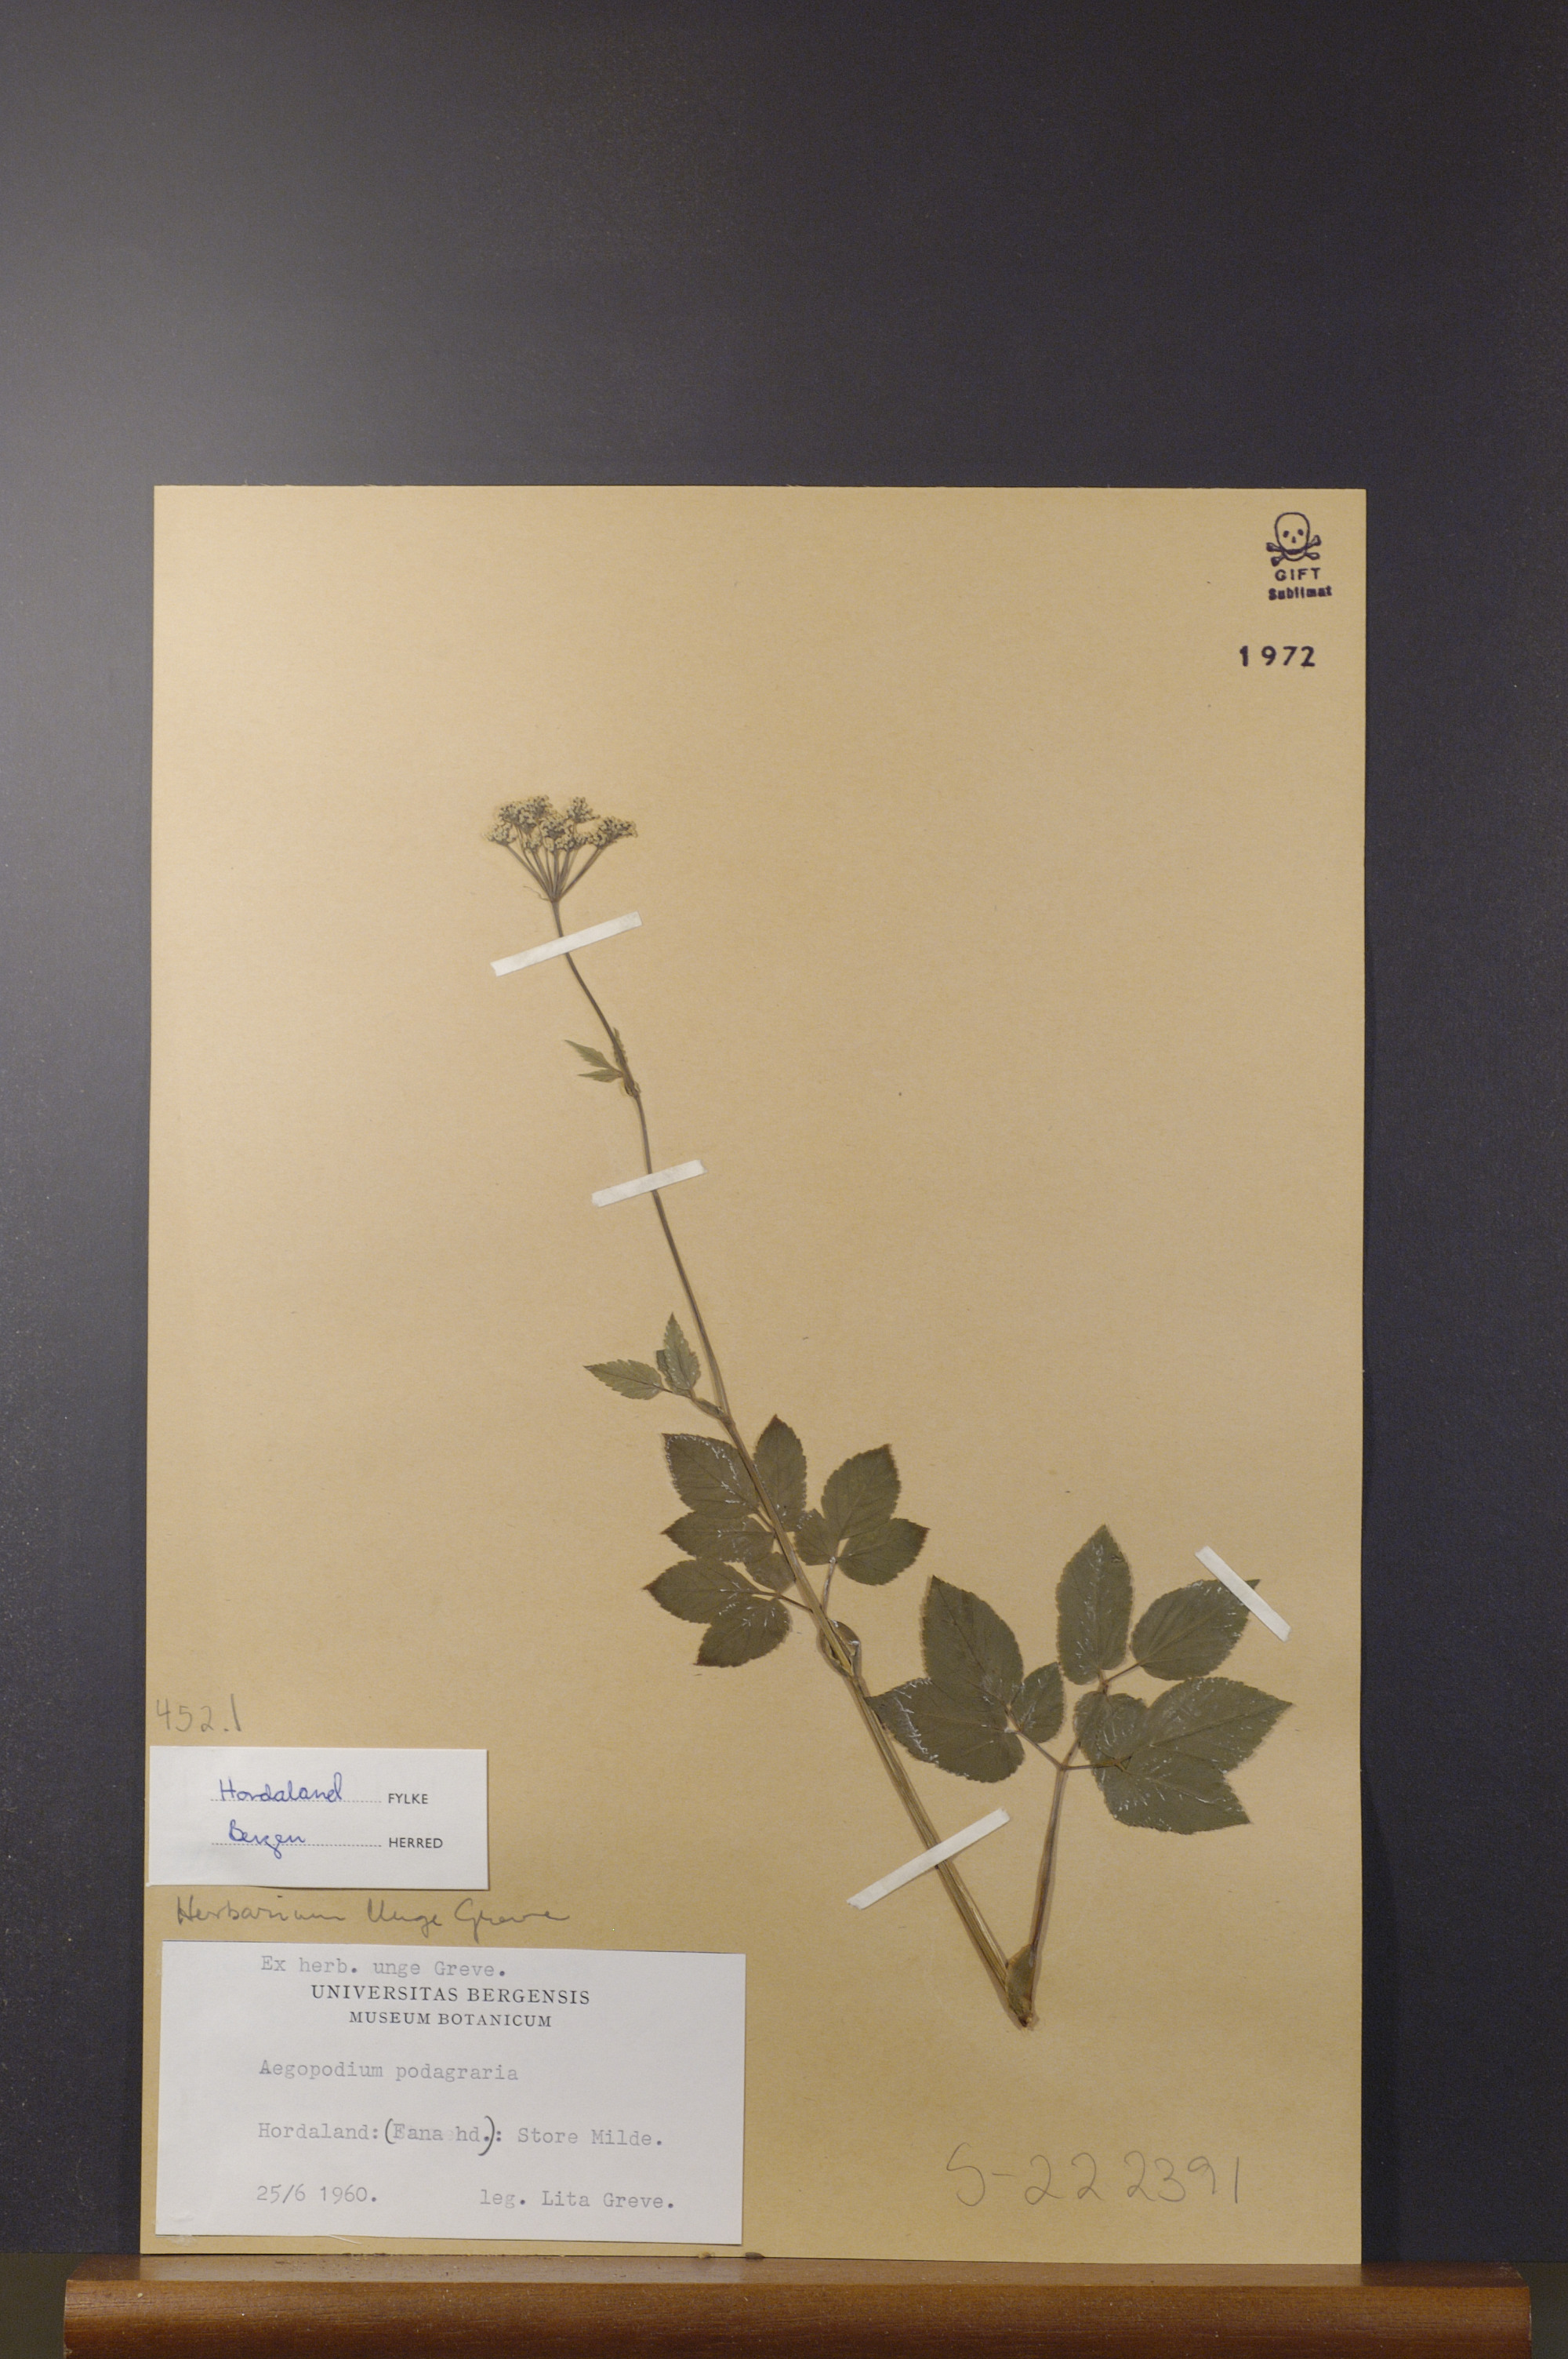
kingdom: Plantae
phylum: Tracheophyta
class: Magnoliopsida
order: Apiales
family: Apiaceae
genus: Aegopodium
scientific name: Aegopodium podagraria
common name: Ground-elder
